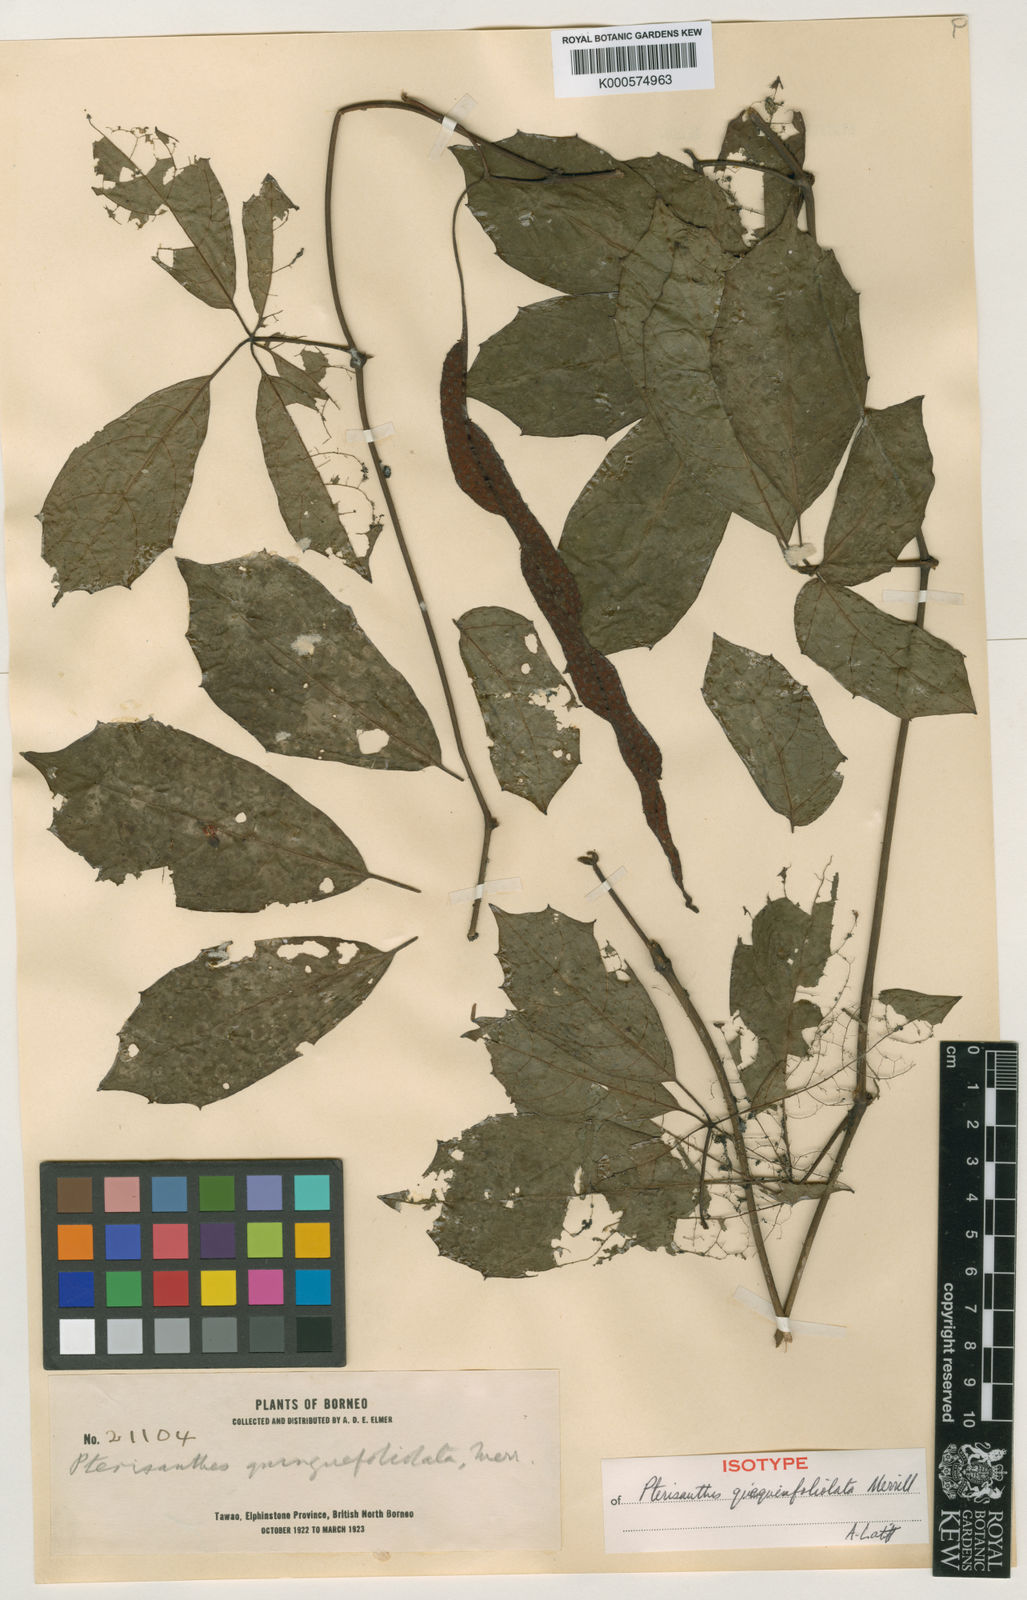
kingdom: Plantae
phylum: Tracheophyta
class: Magnoliopsida
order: Vitales
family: Vitaceae
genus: Pterisanthes
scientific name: Pterisanthes quinquefoliolata
